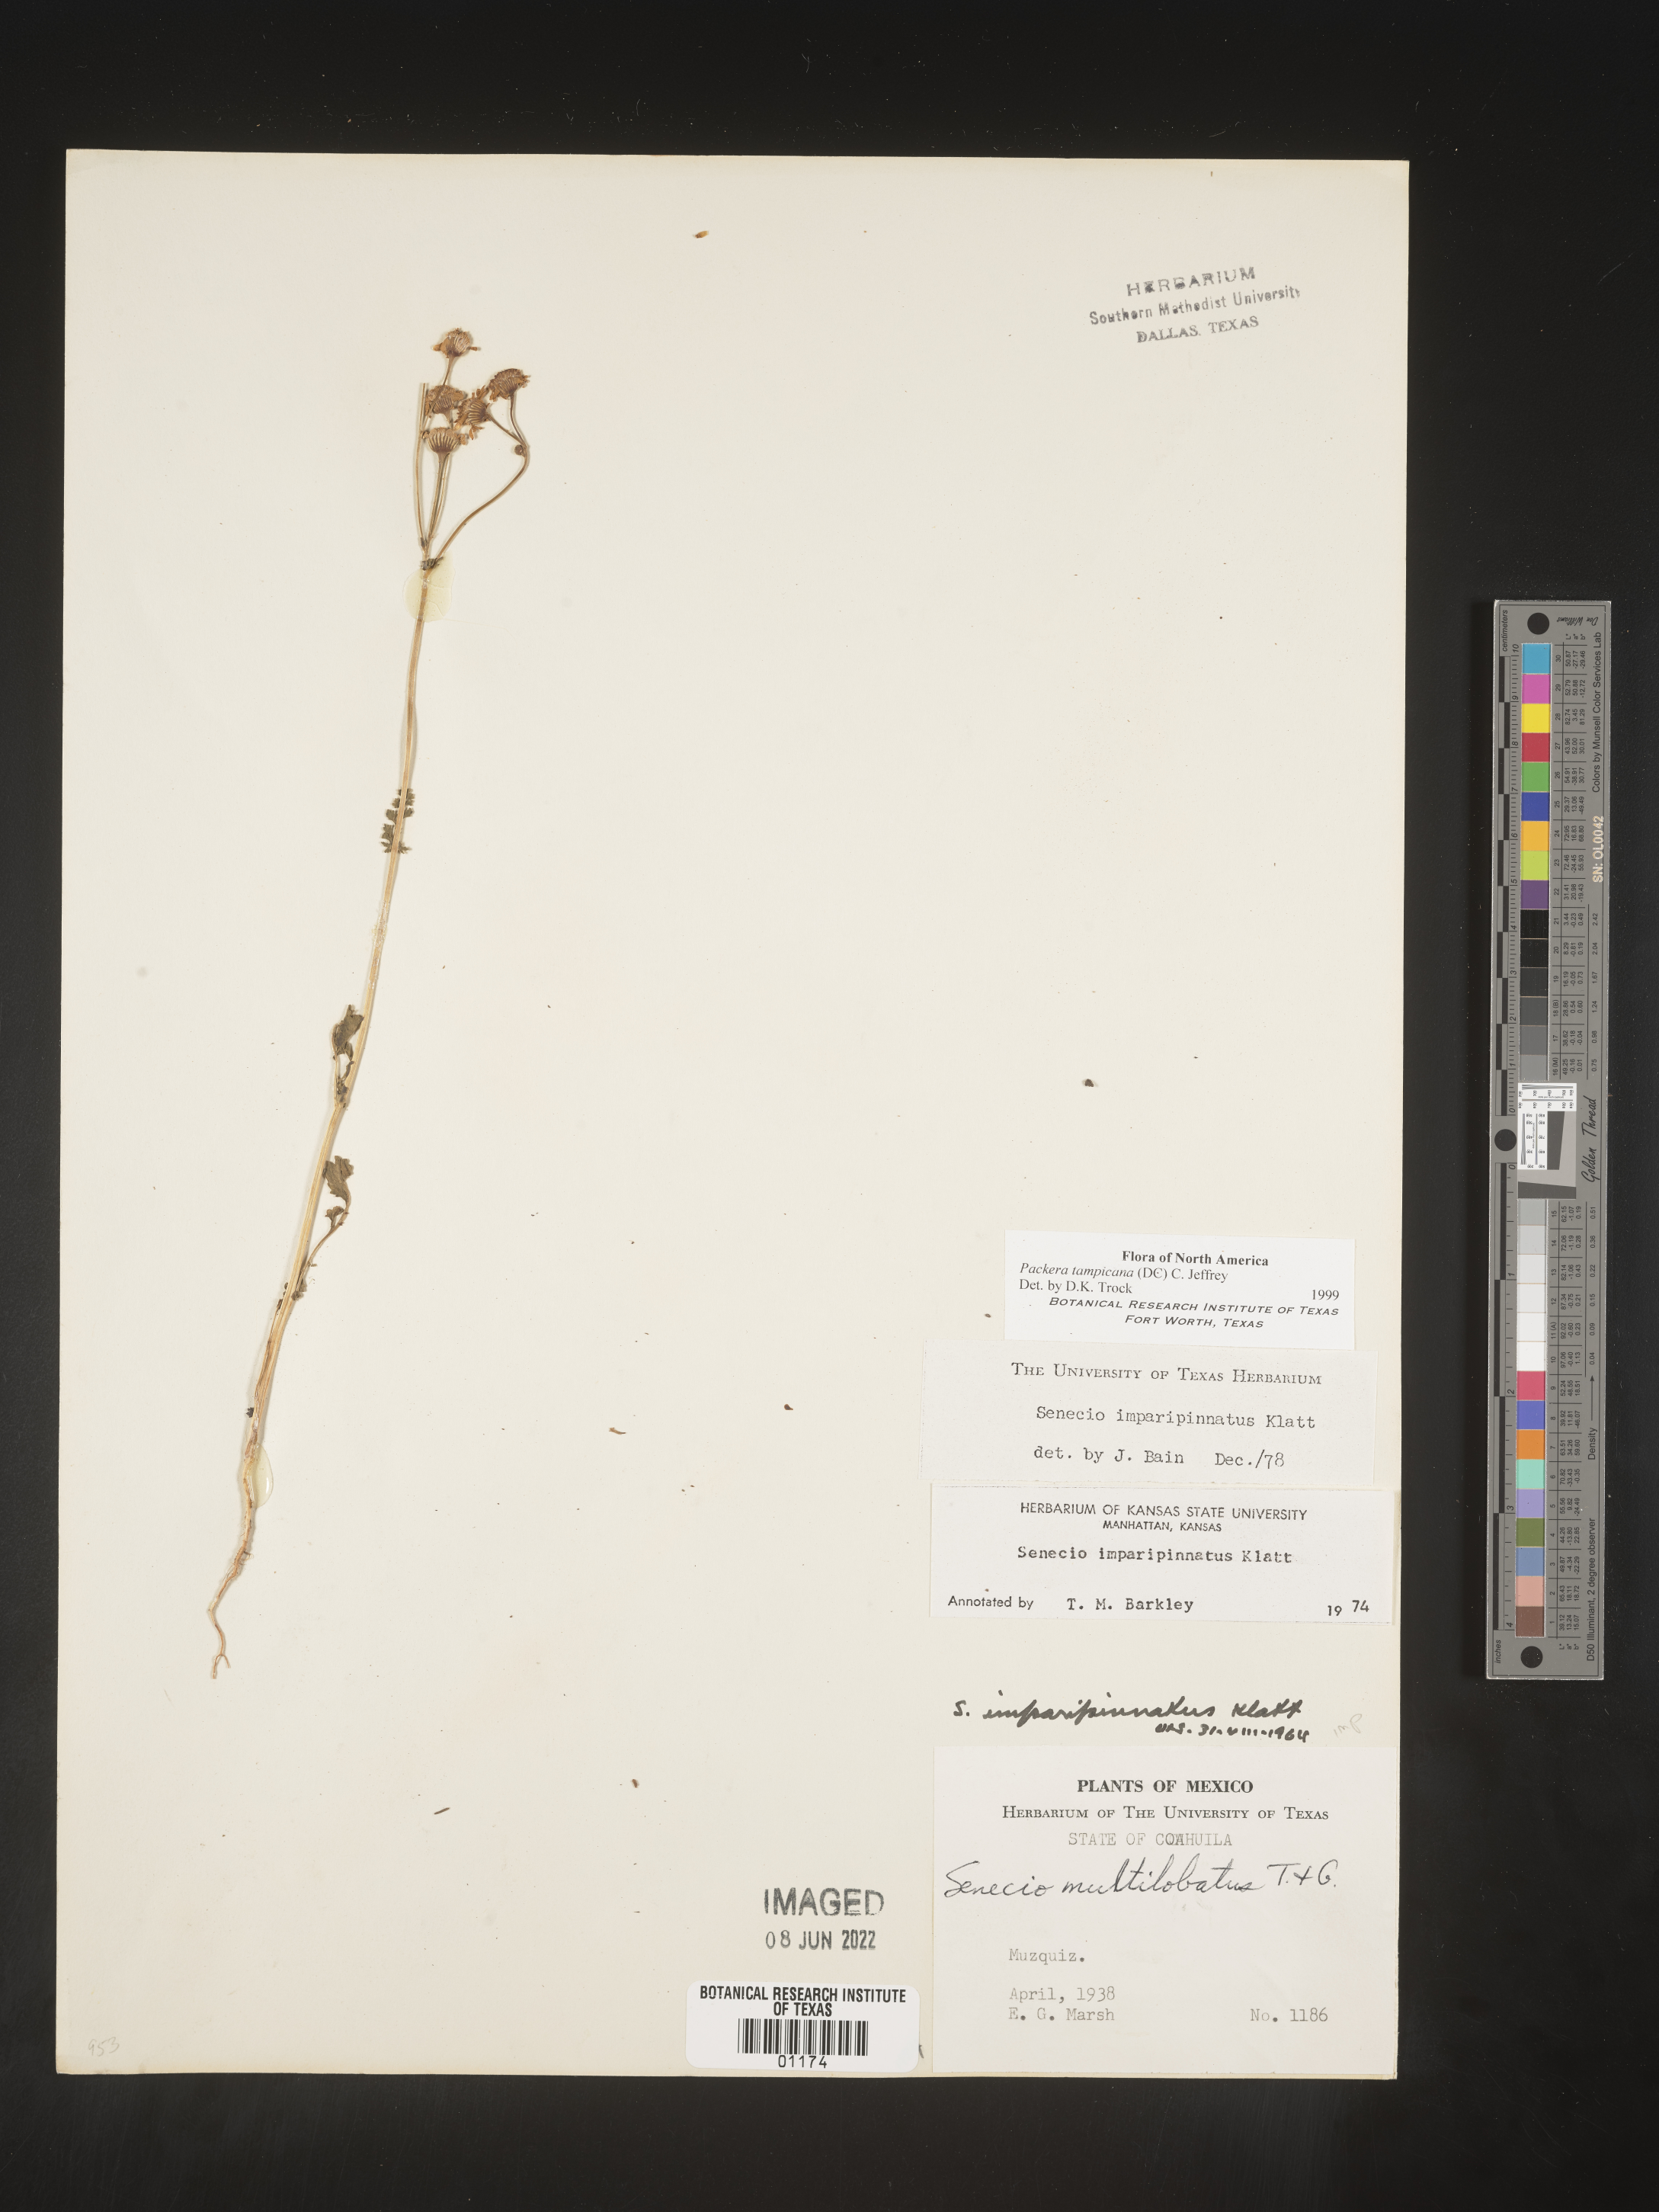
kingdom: Plantae
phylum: Tracheophyta
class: Magnoliopsida
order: Asterales
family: Asteraceae
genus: Packera
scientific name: Packera
